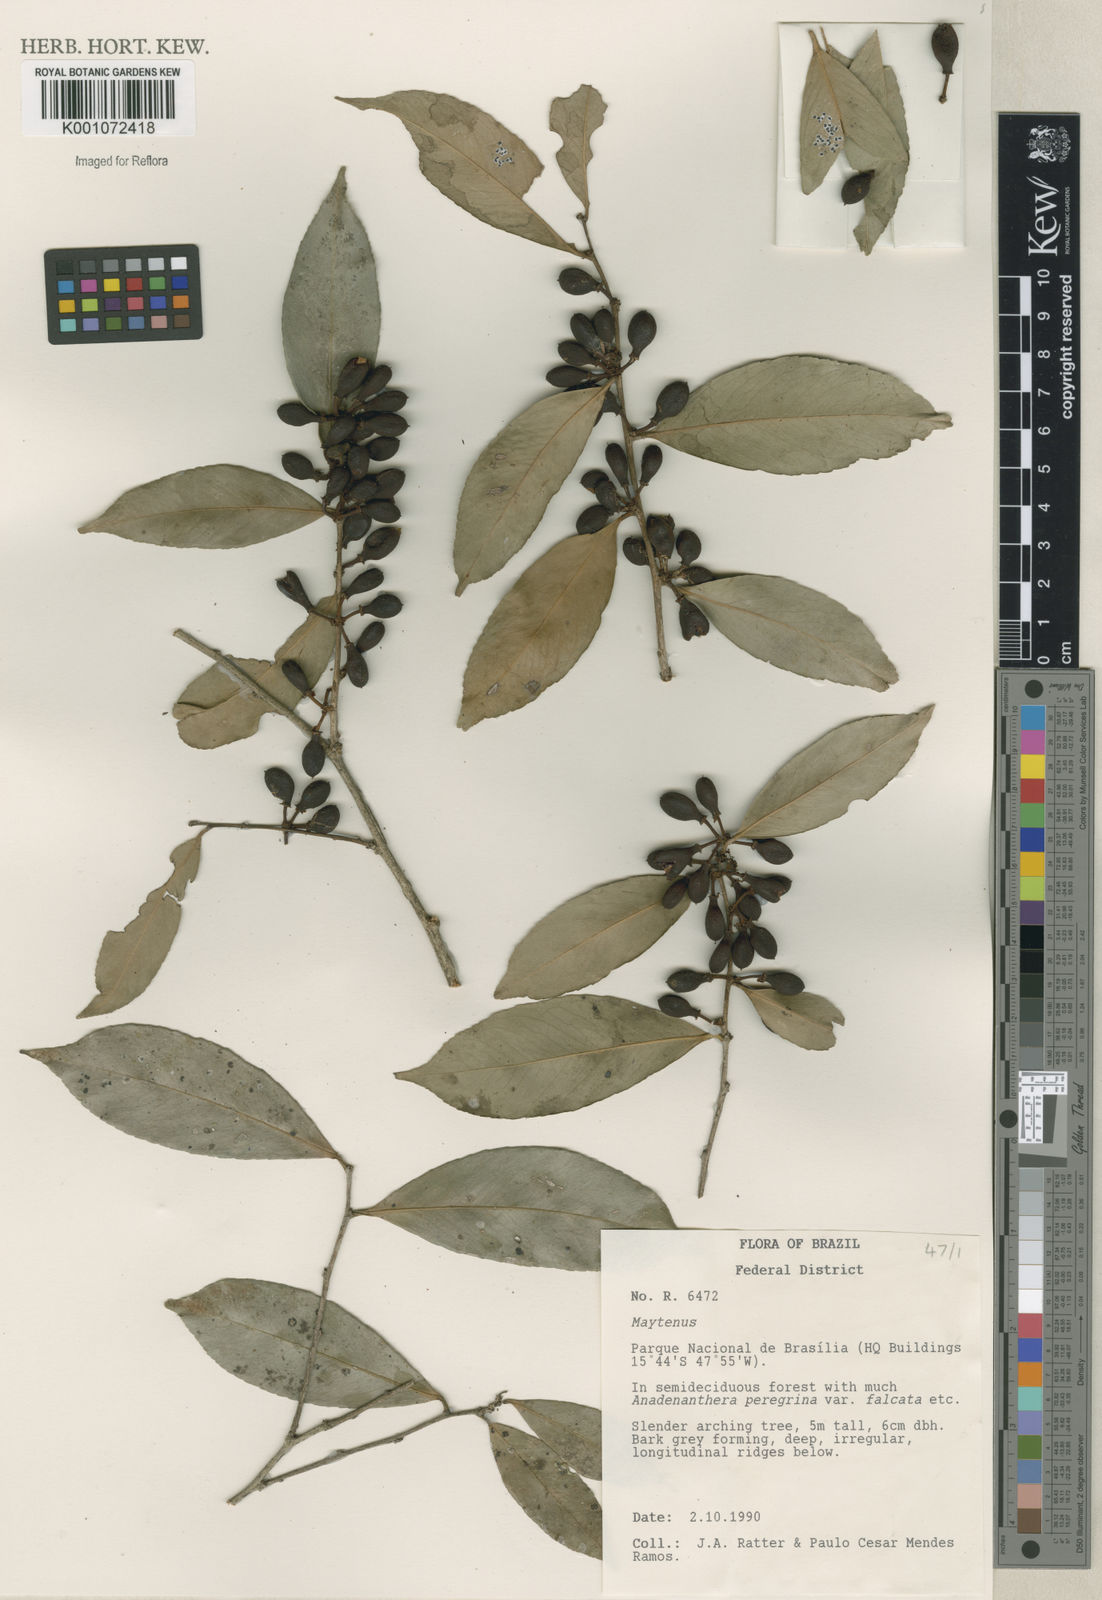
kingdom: Plantae
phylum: Tracheophyta
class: Magnoliopsida
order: Celastrales
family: Celastraceae
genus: Maytenus
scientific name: Maytenus
